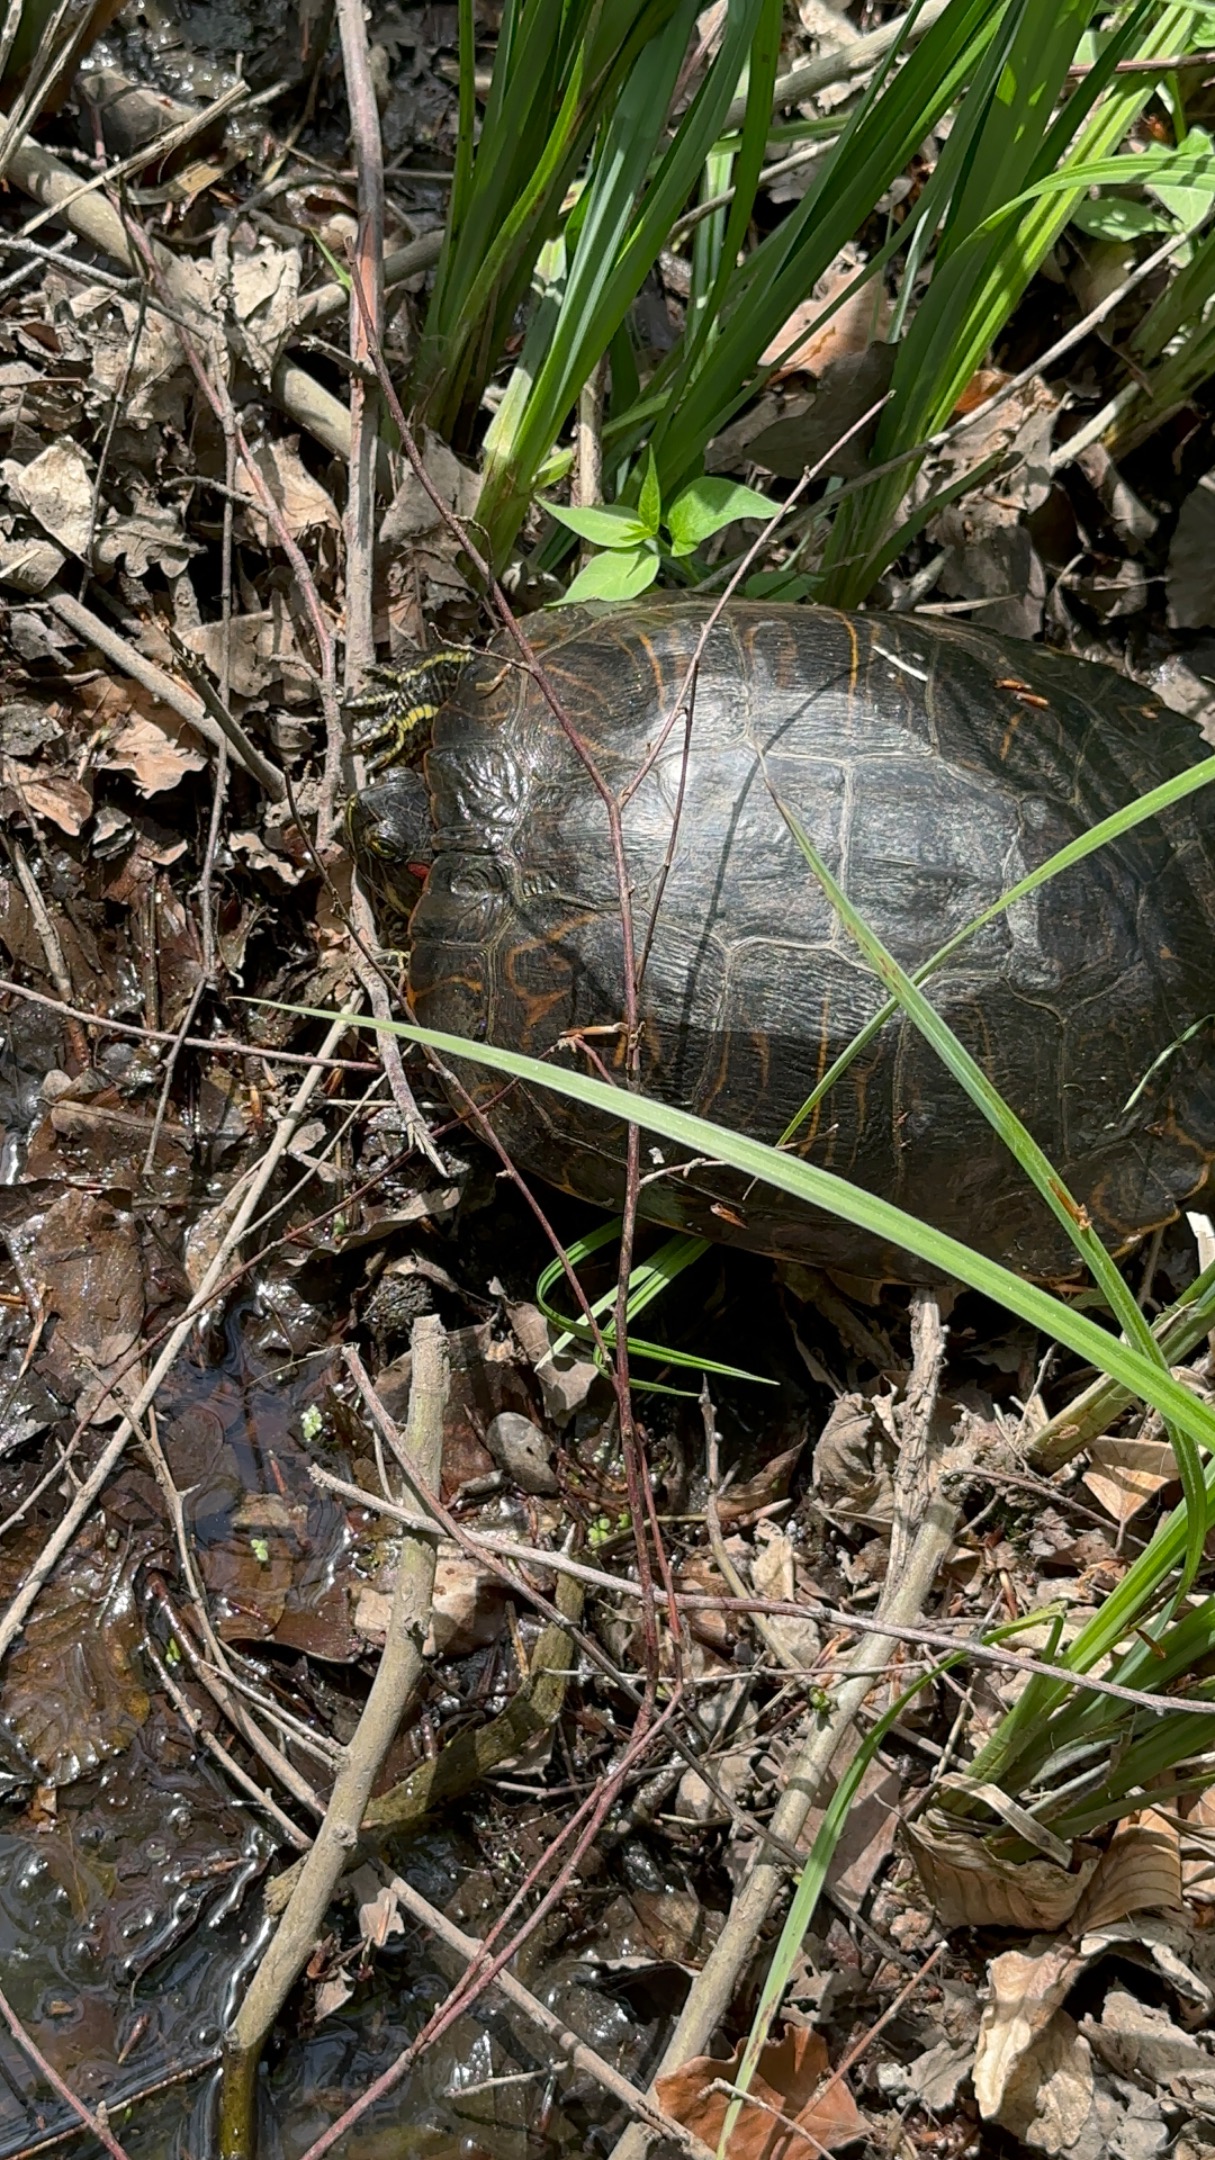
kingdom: Animalia
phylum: Chordata
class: Testudines
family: Emydidae
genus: Trachemys
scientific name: Trachemys scripta
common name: Rødøret terrapin
